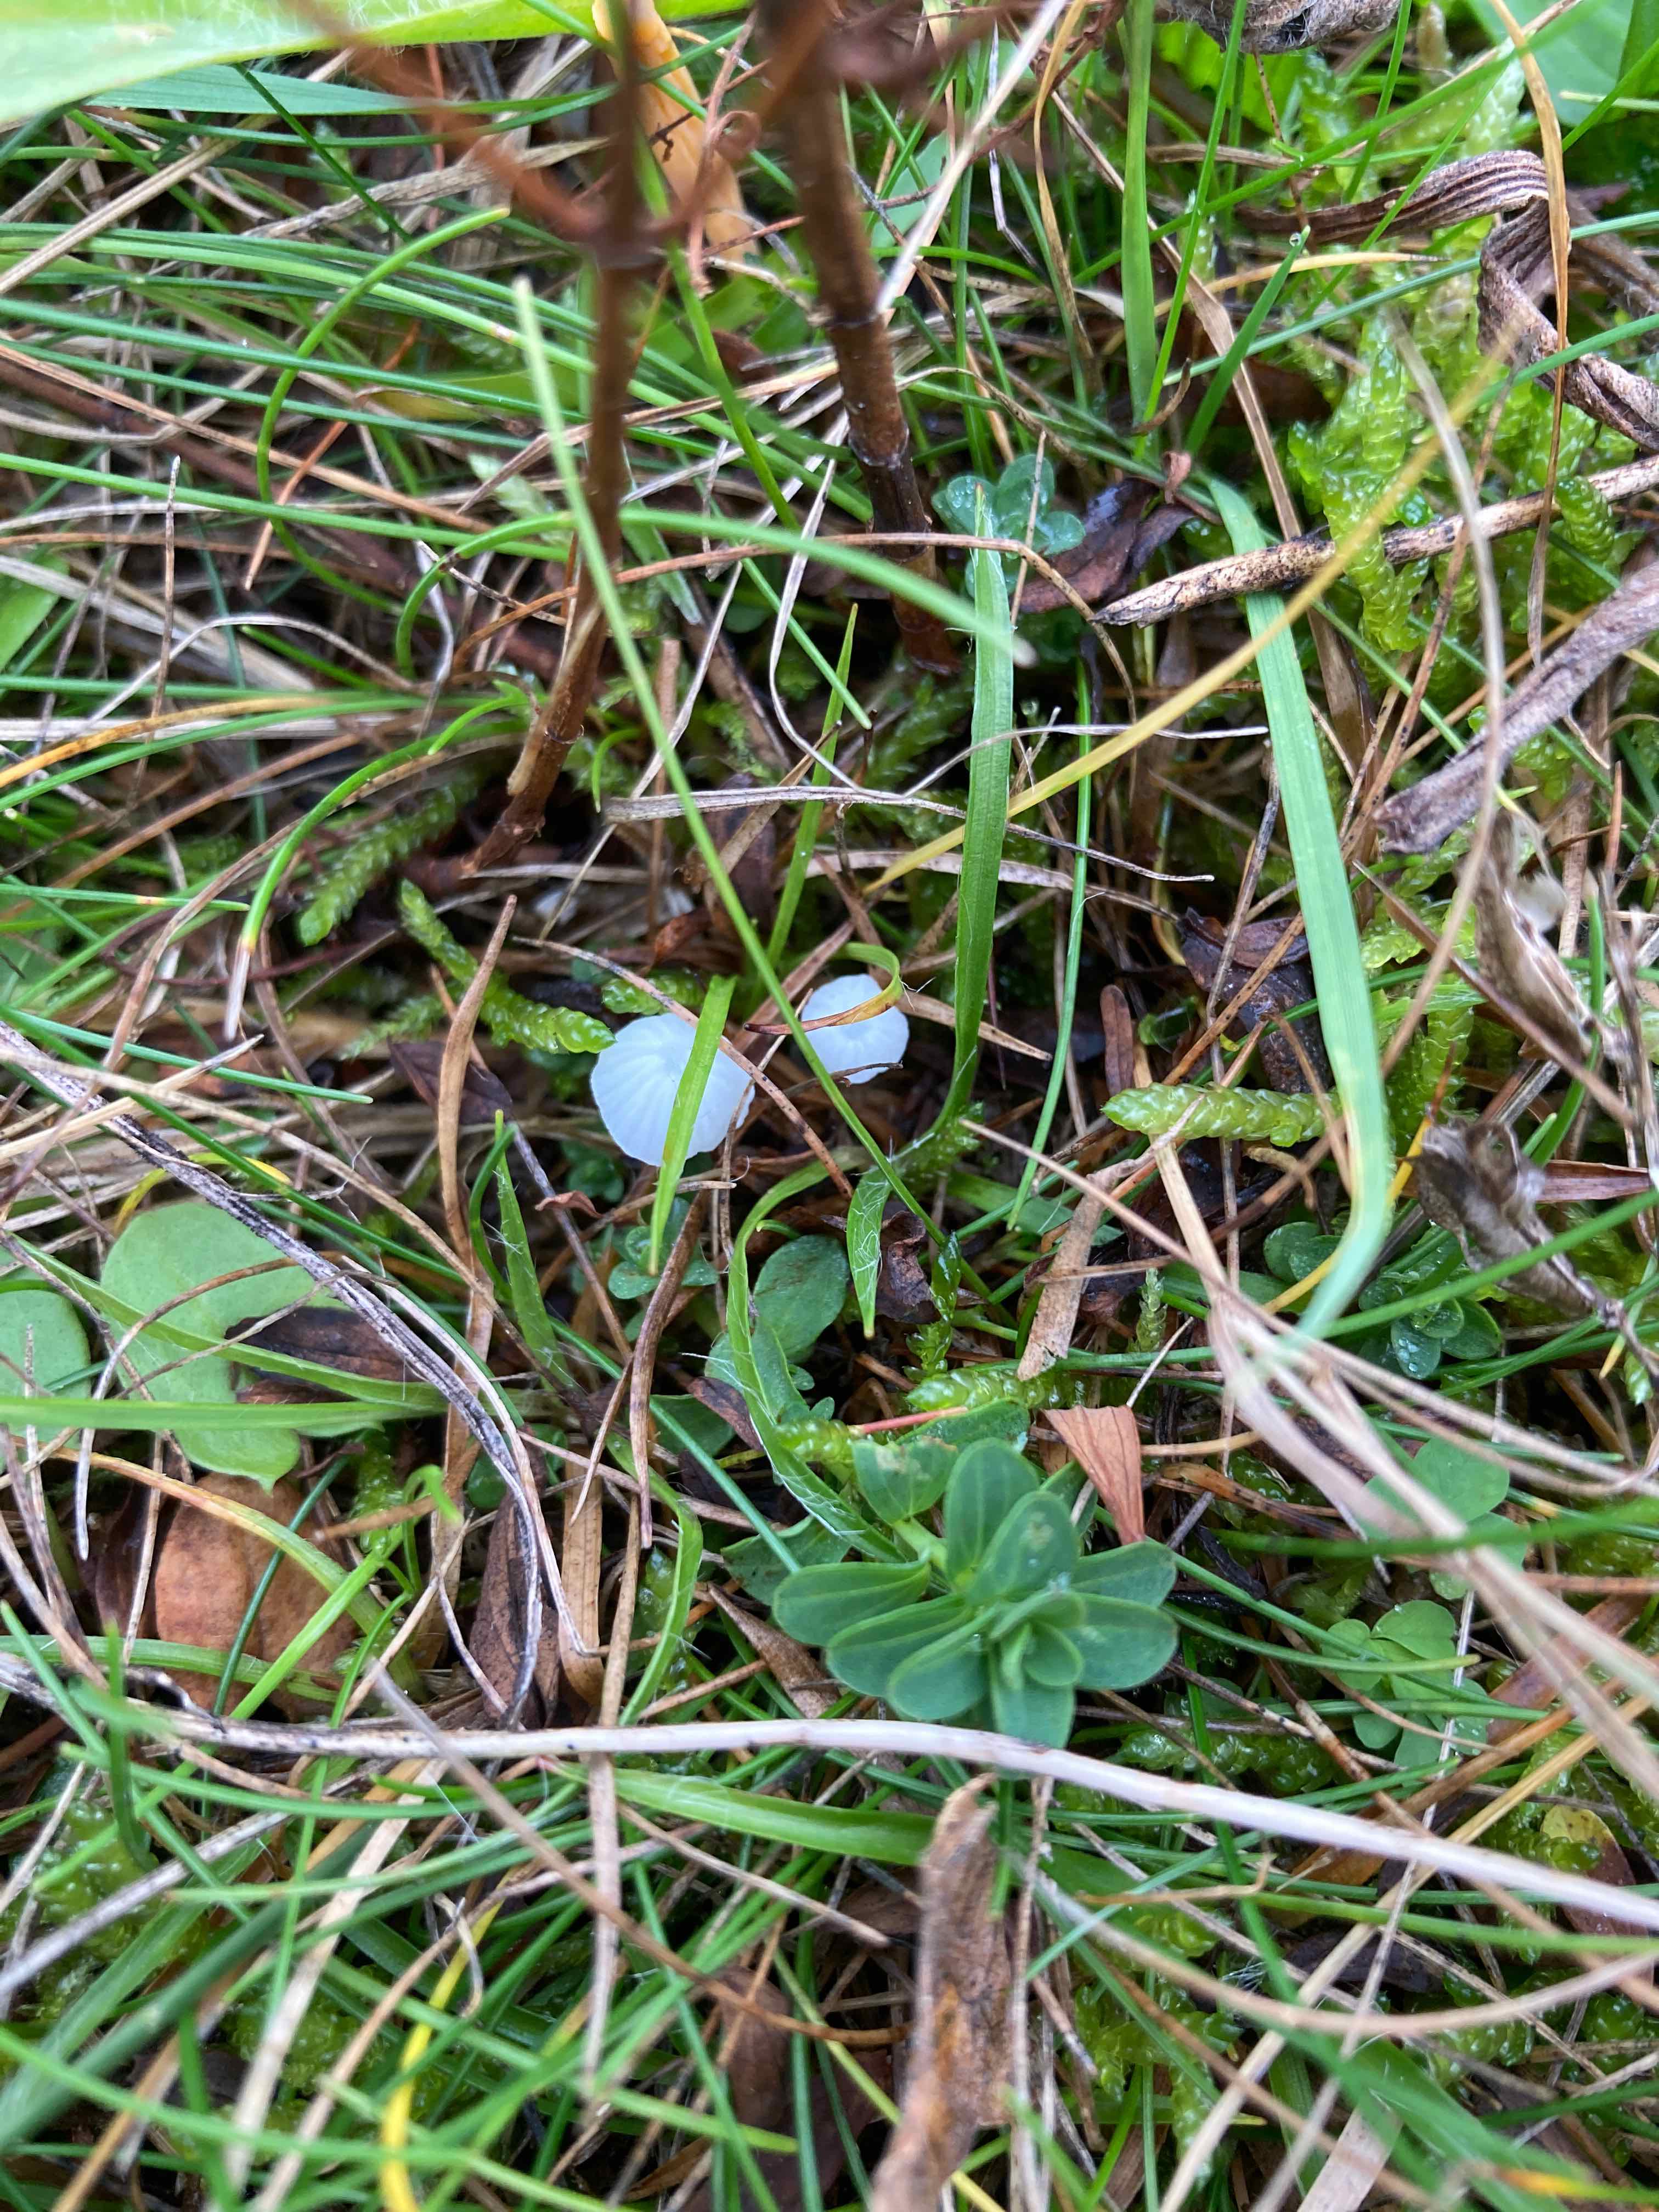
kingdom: Fungi
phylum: Basidiomycota
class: Agaricomycetes
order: Agaricales
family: Mycenaceae
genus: Atheniella
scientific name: Atheniella delectabilis
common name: nitrøs huesvamp
